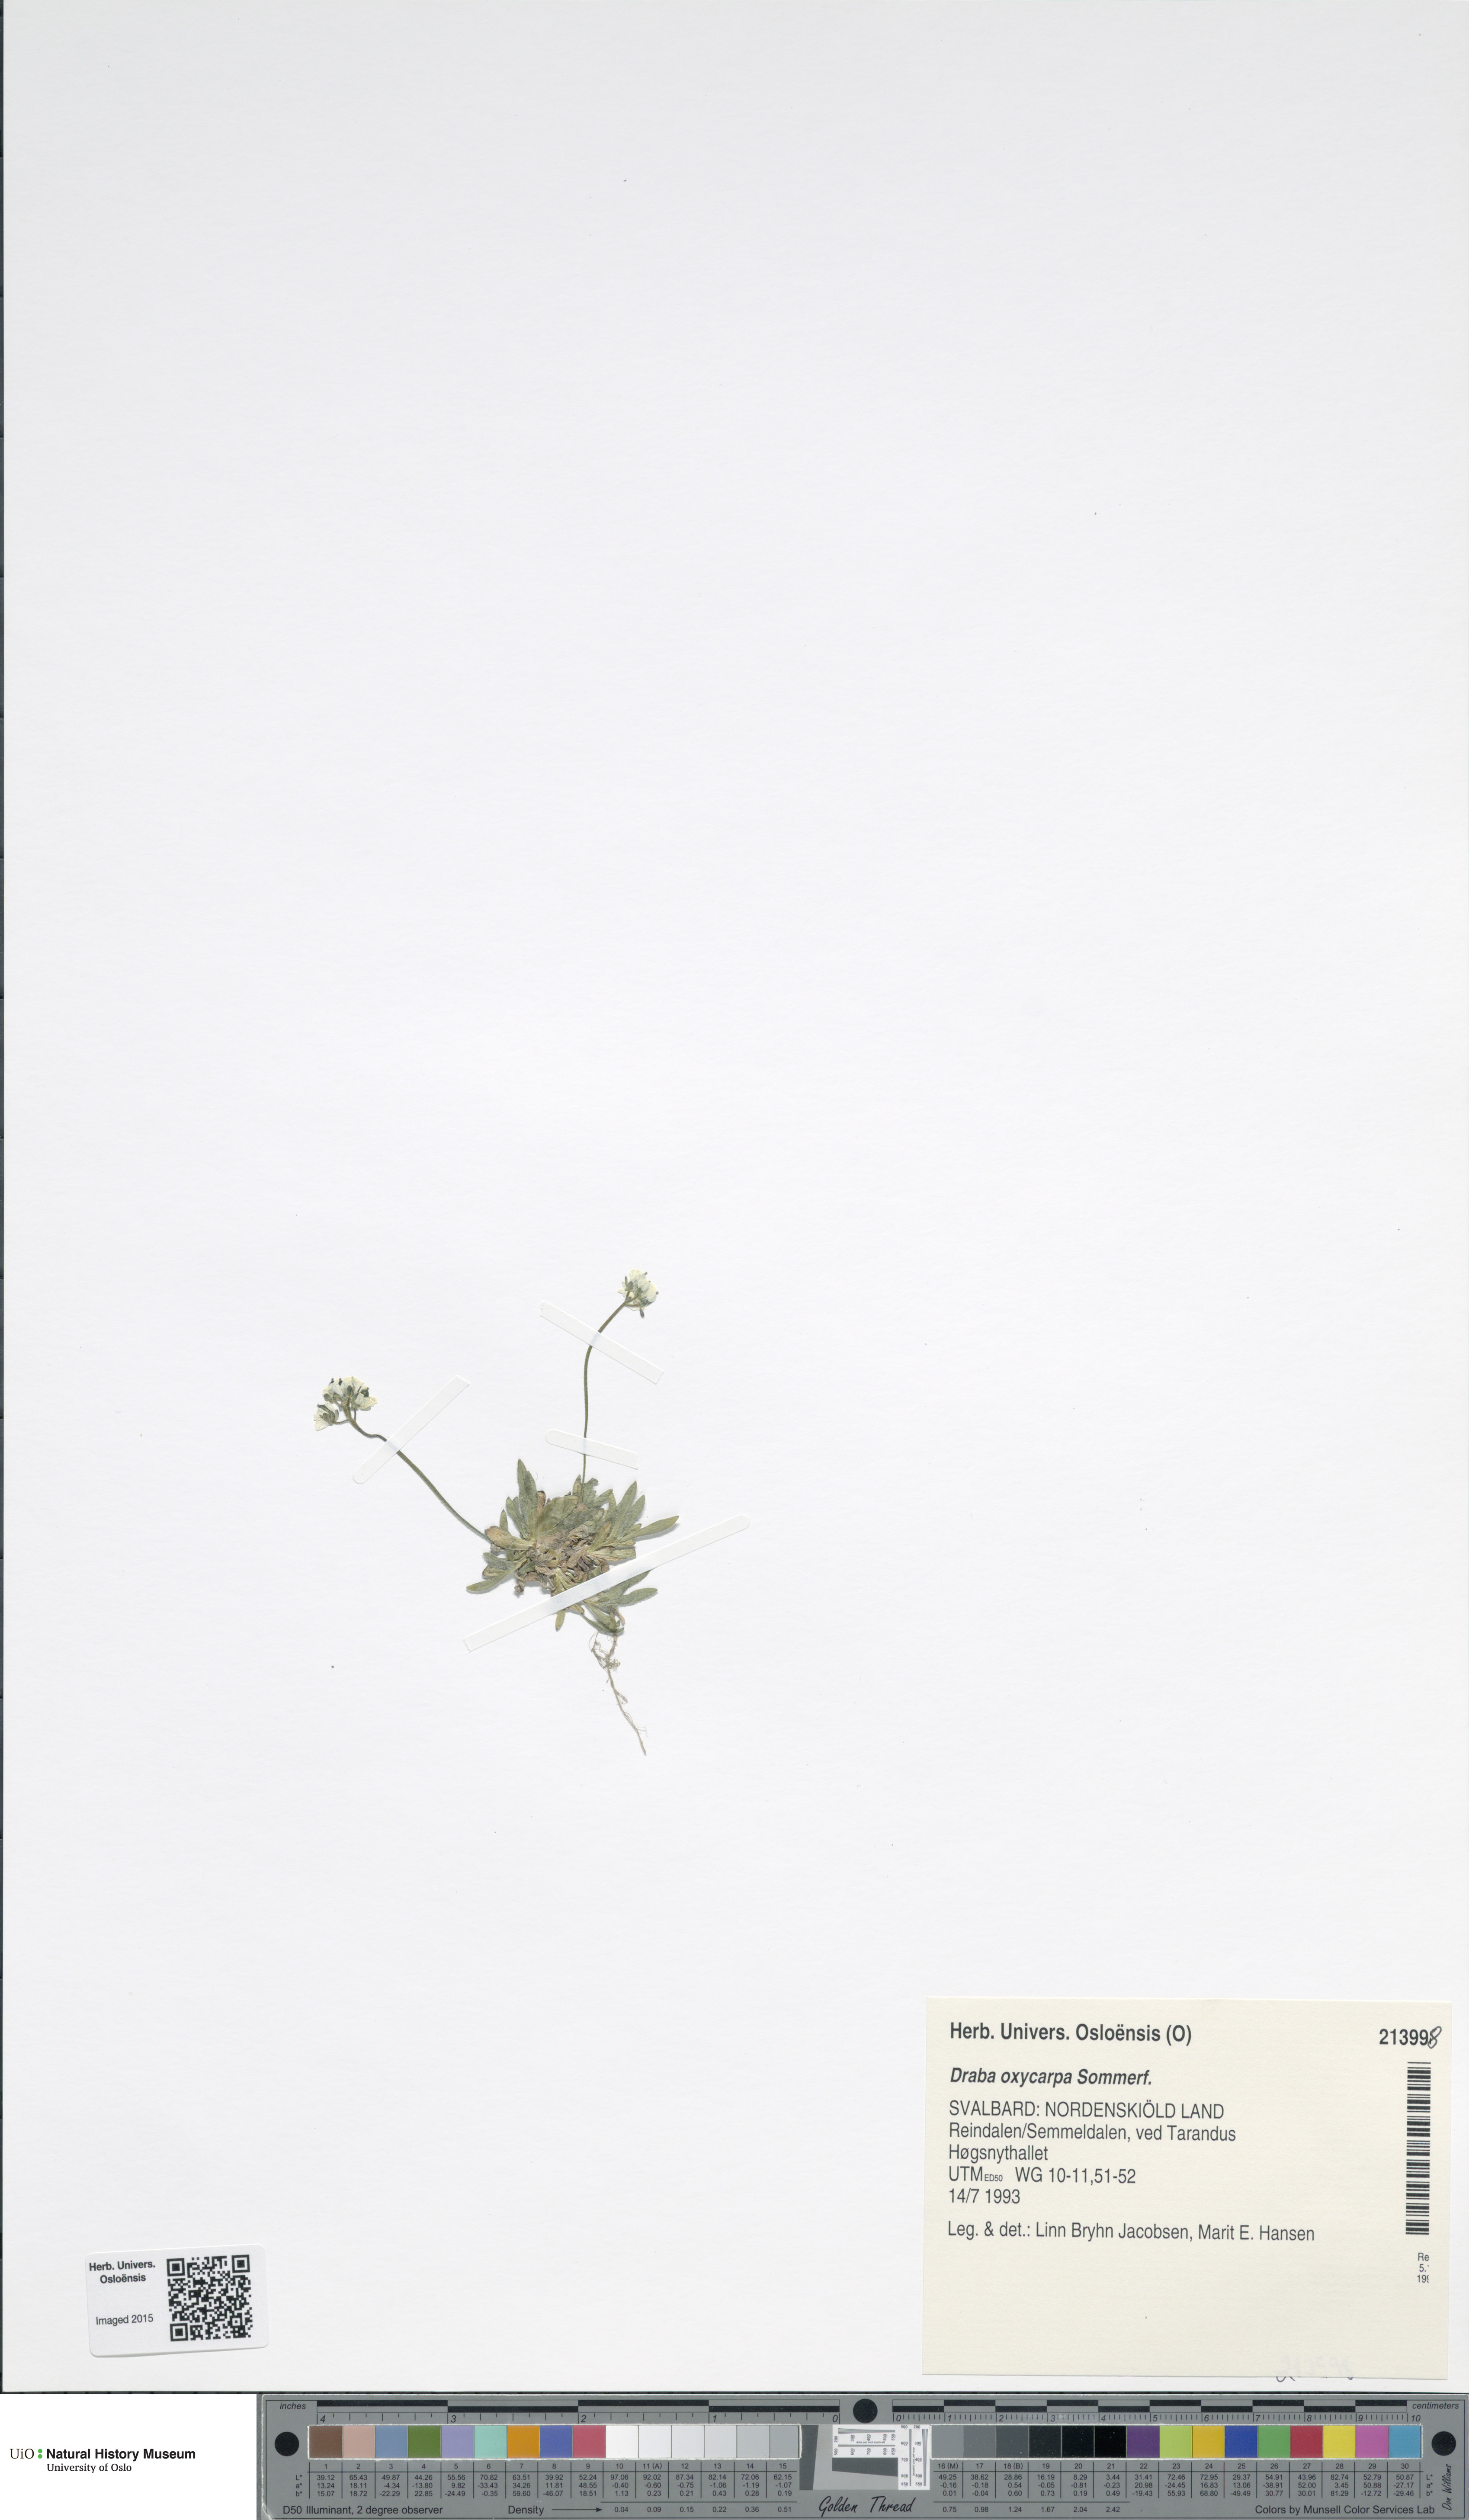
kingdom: Plantae
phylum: Tracheophyta
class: Magnoliopsida
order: Brassicales
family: Brassicaceae
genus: Draba
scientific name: Draba oxycarpa
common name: Sharp-fruited whitlow-grass
